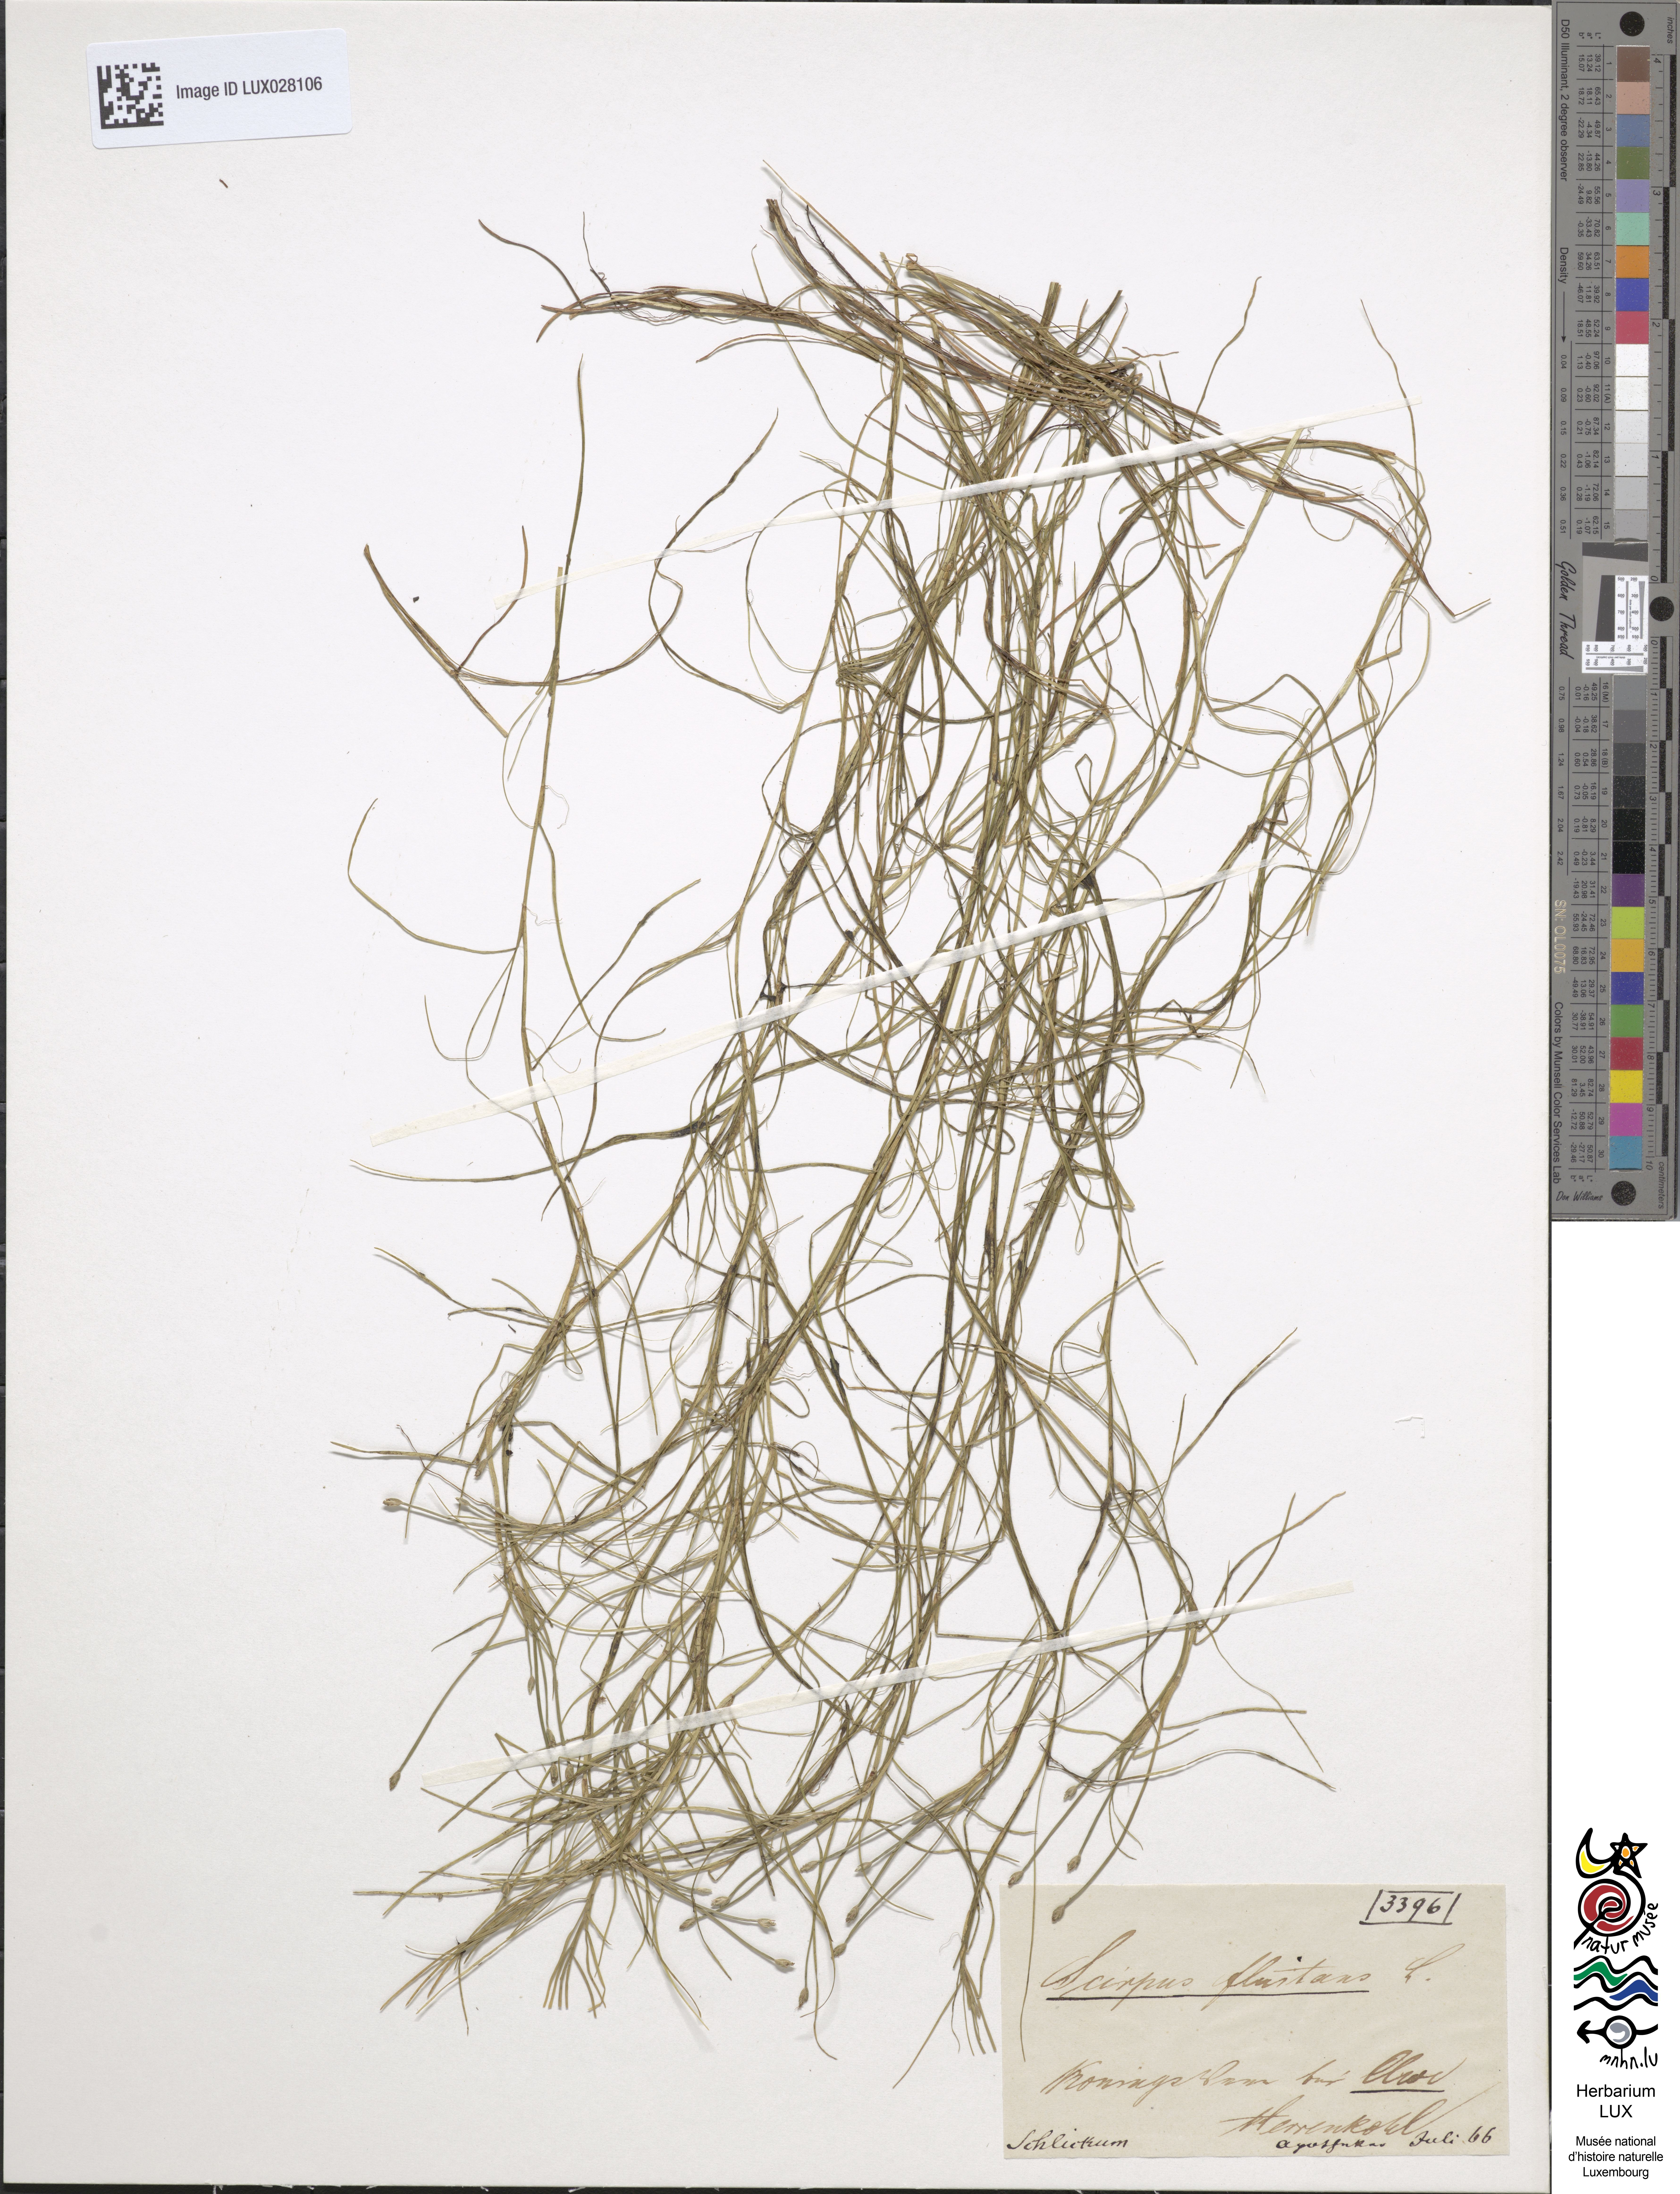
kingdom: Plantae
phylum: Tracheophyta
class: Liliopsida
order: Poales
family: Cyperaceae
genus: Isolepis
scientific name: Isolepis fluitans
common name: Floating club-rush
